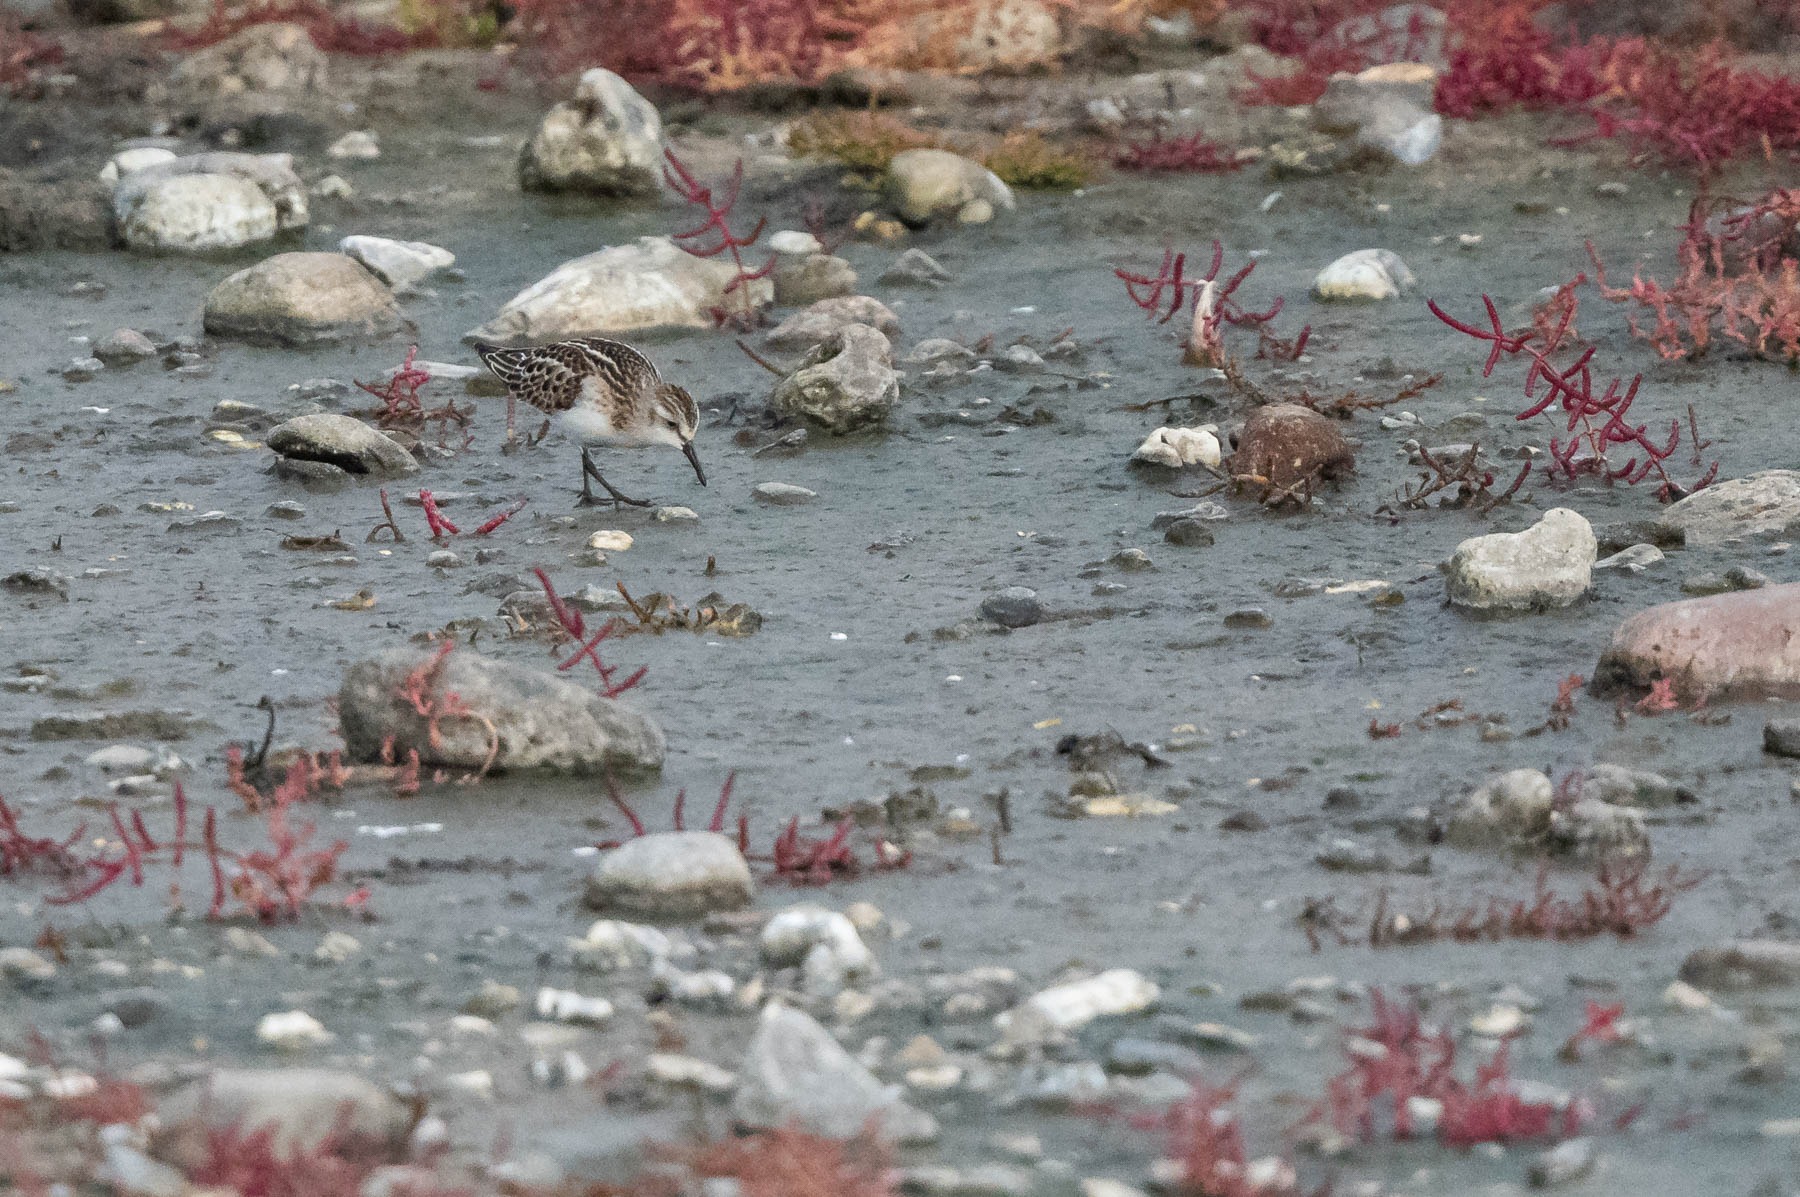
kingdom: Animalia
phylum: Chordata
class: Aves
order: Charadriiformes
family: Scolopacidae
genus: Calidris
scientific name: Calidris minuta
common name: Dværgryle
